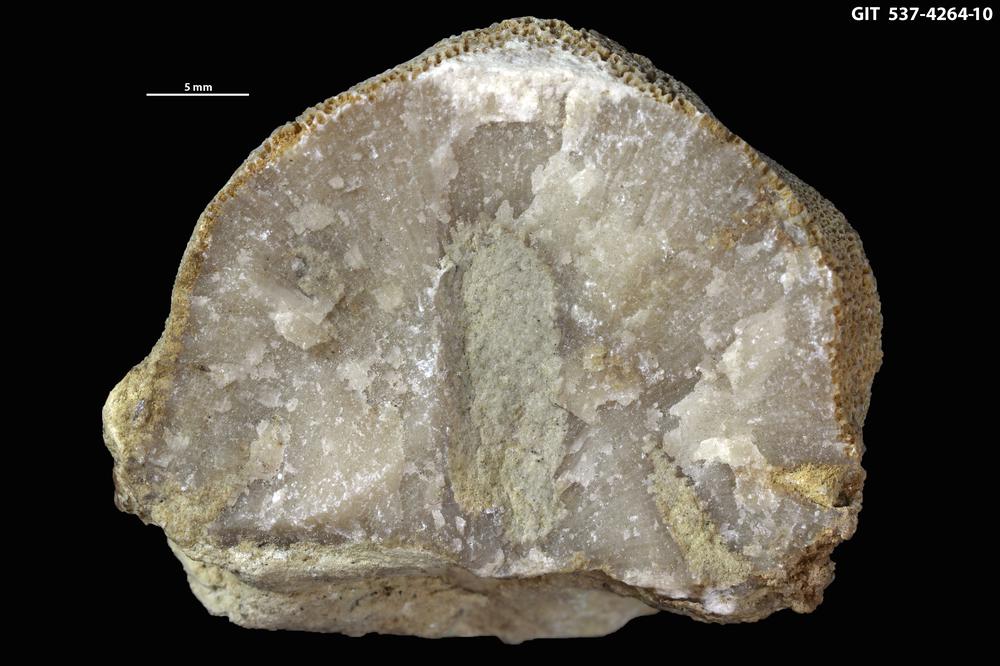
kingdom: Animalia
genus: Sanctum
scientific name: Sanctum
